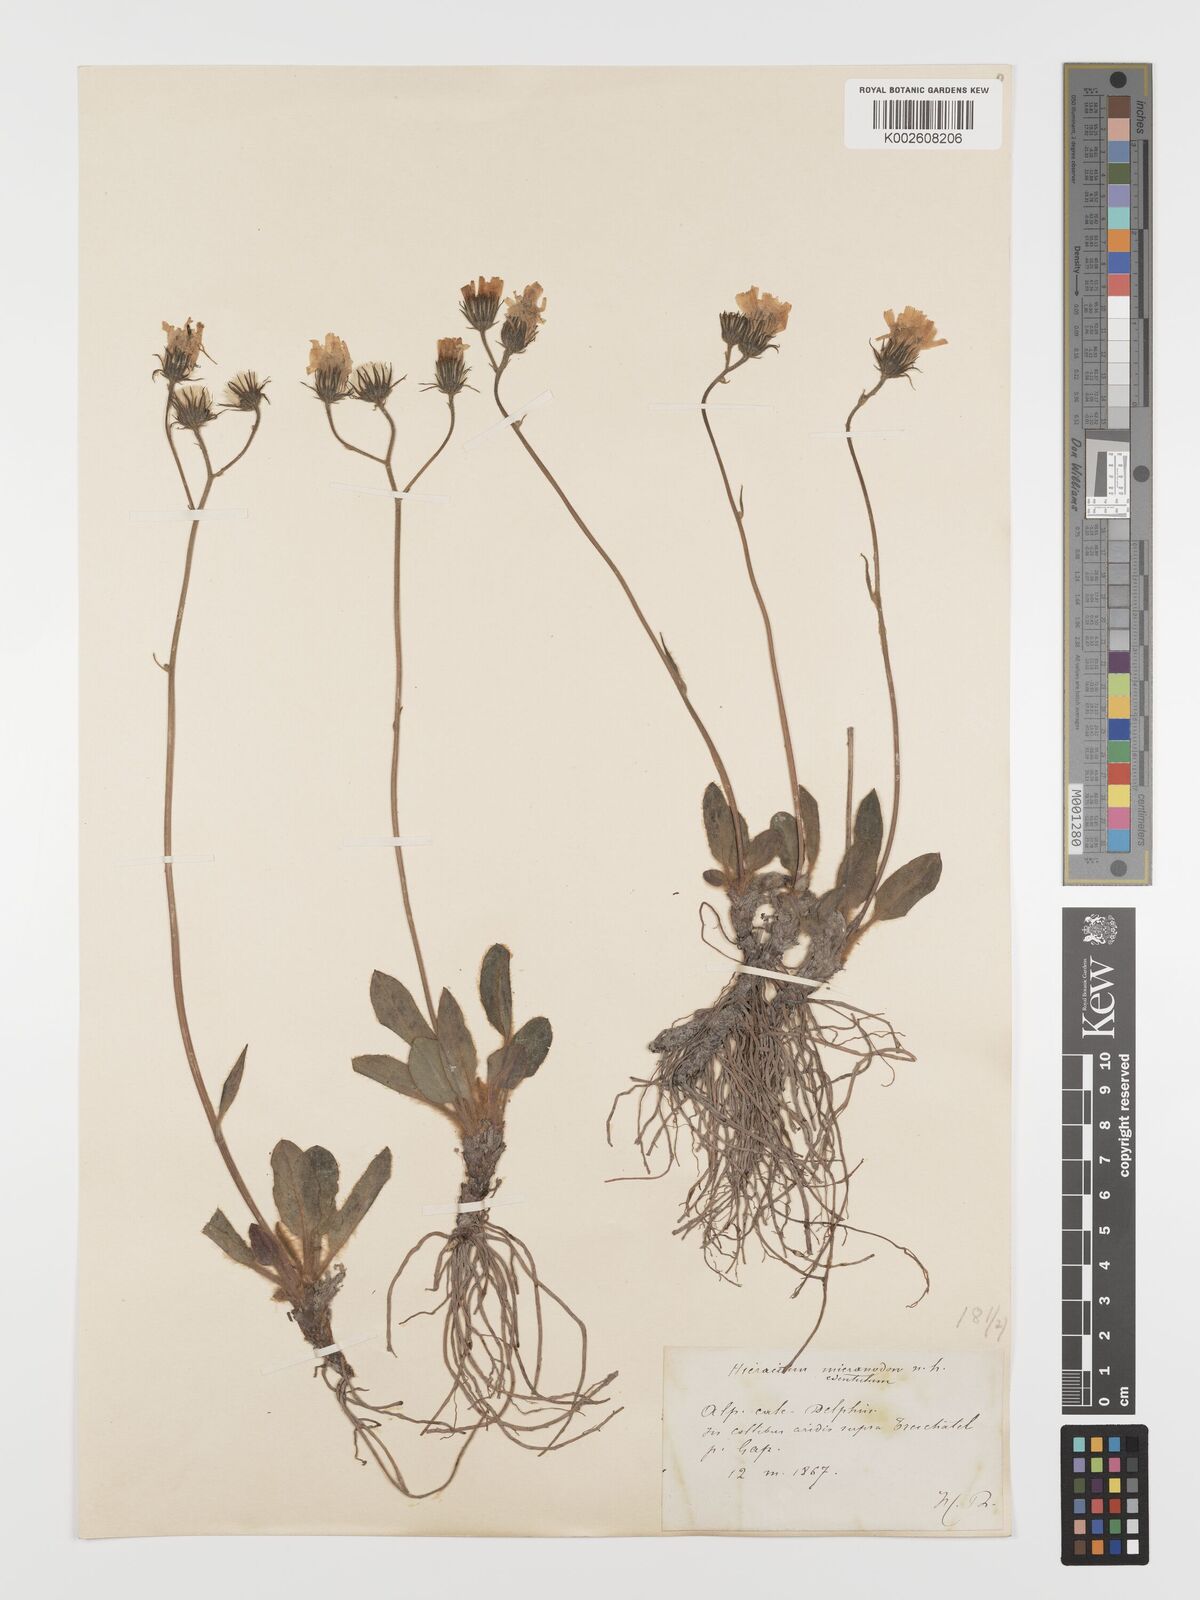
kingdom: Plantae
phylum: Tracheophyta
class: Magnoliopsida
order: Asterales
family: Asteraceae
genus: Hieracium
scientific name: Hieracium
